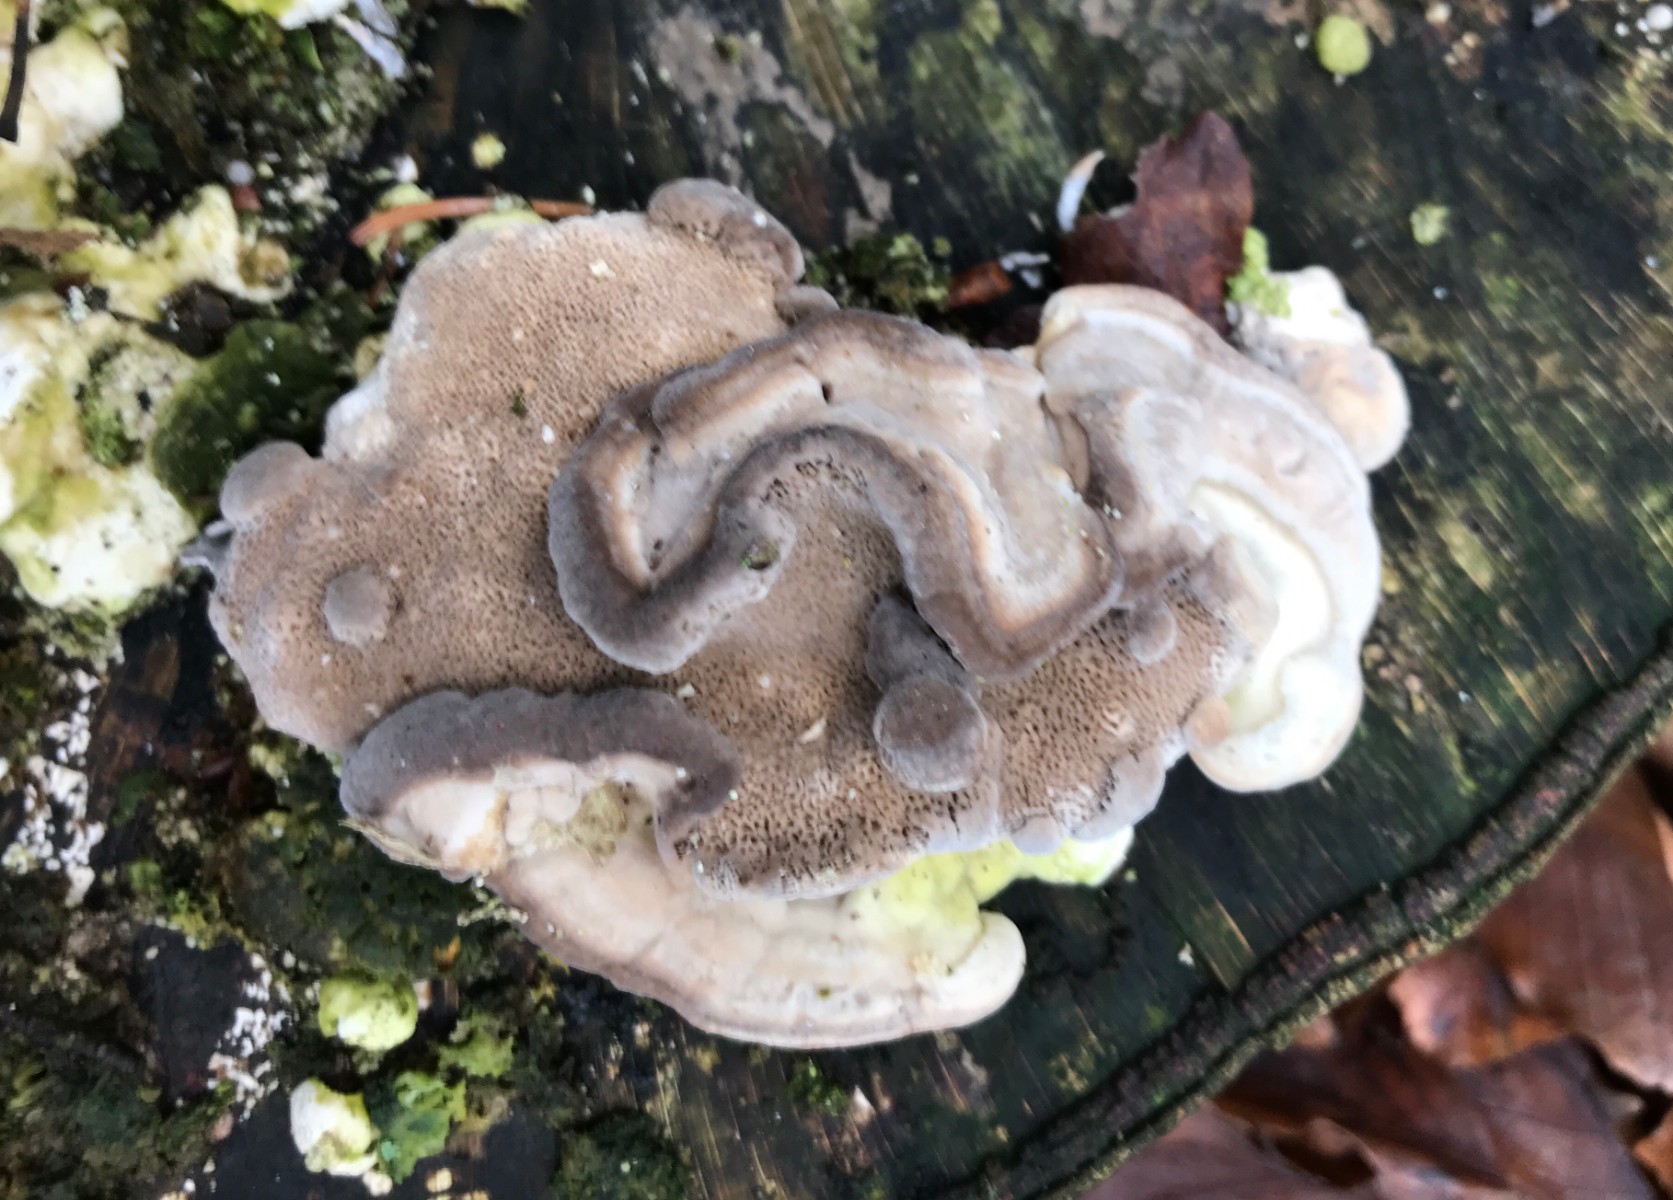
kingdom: Fungi
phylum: Basidiomycota
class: Agaricomycetes
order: Polyporales
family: Phanerochaetaceae
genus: Bjerkandera
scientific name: Bjerkandera adusta
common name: sveden sodporesvamp
